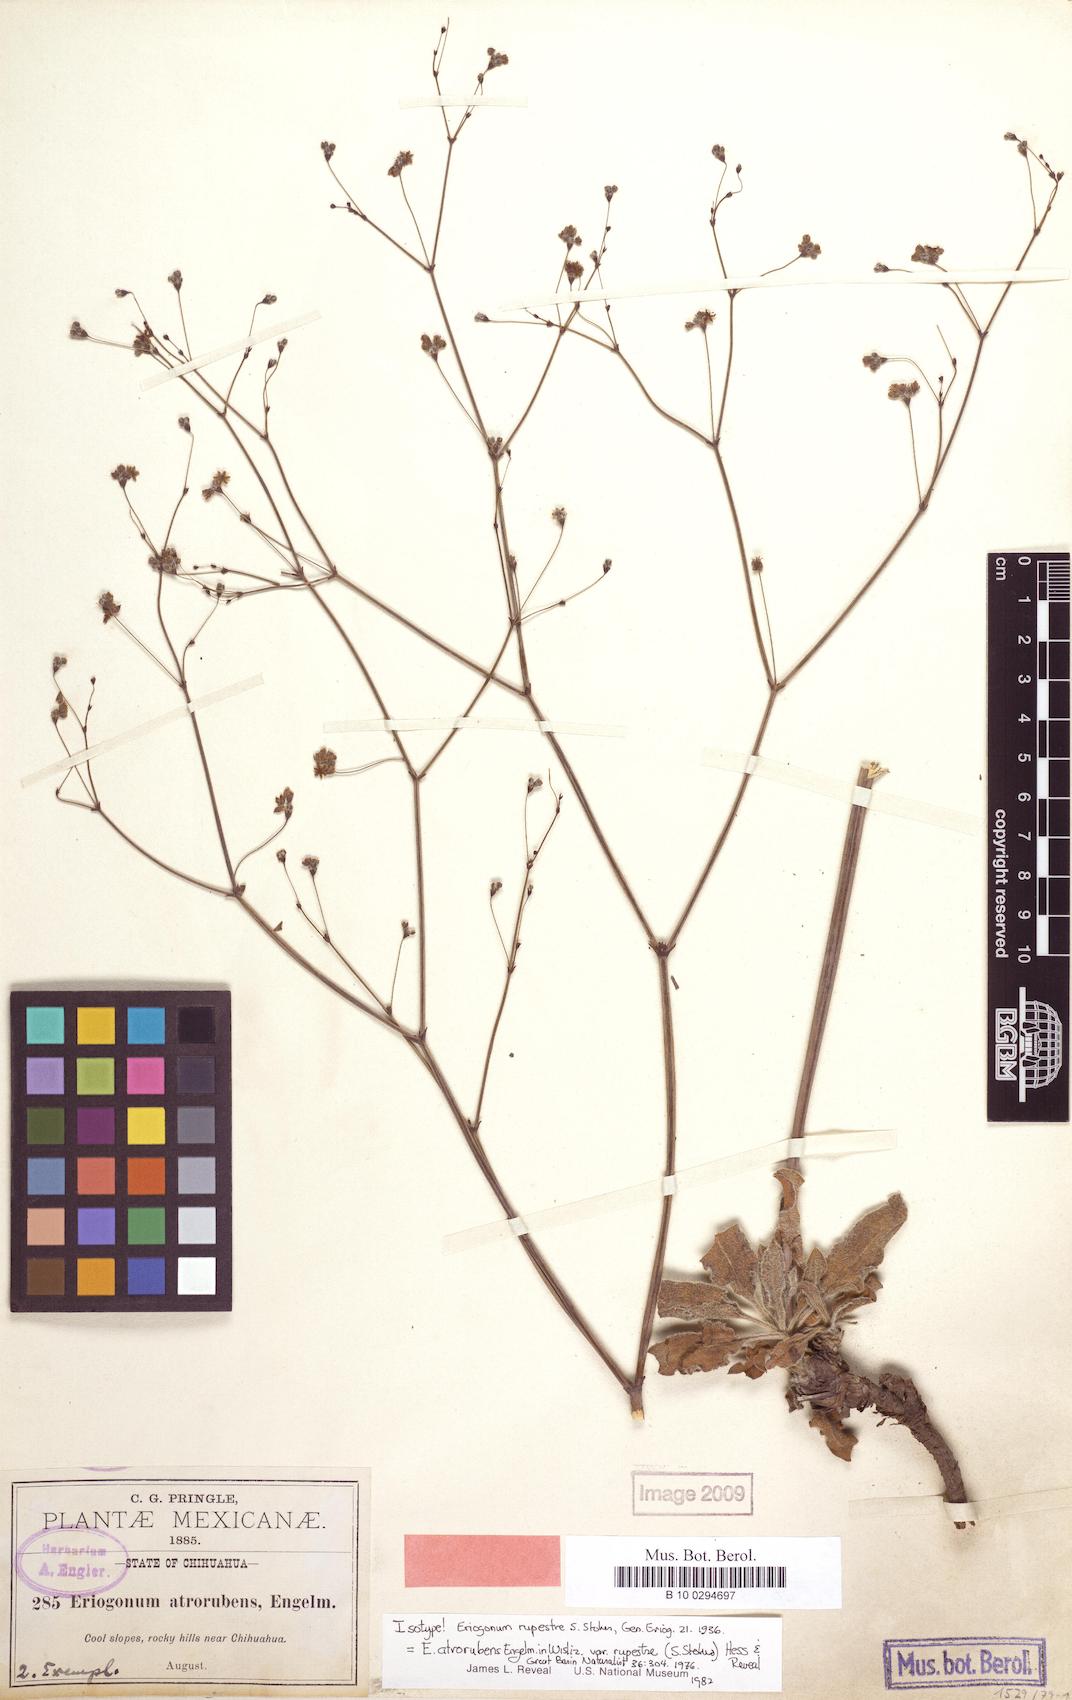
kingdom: Plantae
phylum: Tracheophyta
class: Magnoliopsida
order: Caryophyllales
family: Polygonaceae
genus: Eriogonum
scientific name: Eriogonum atrorubens
